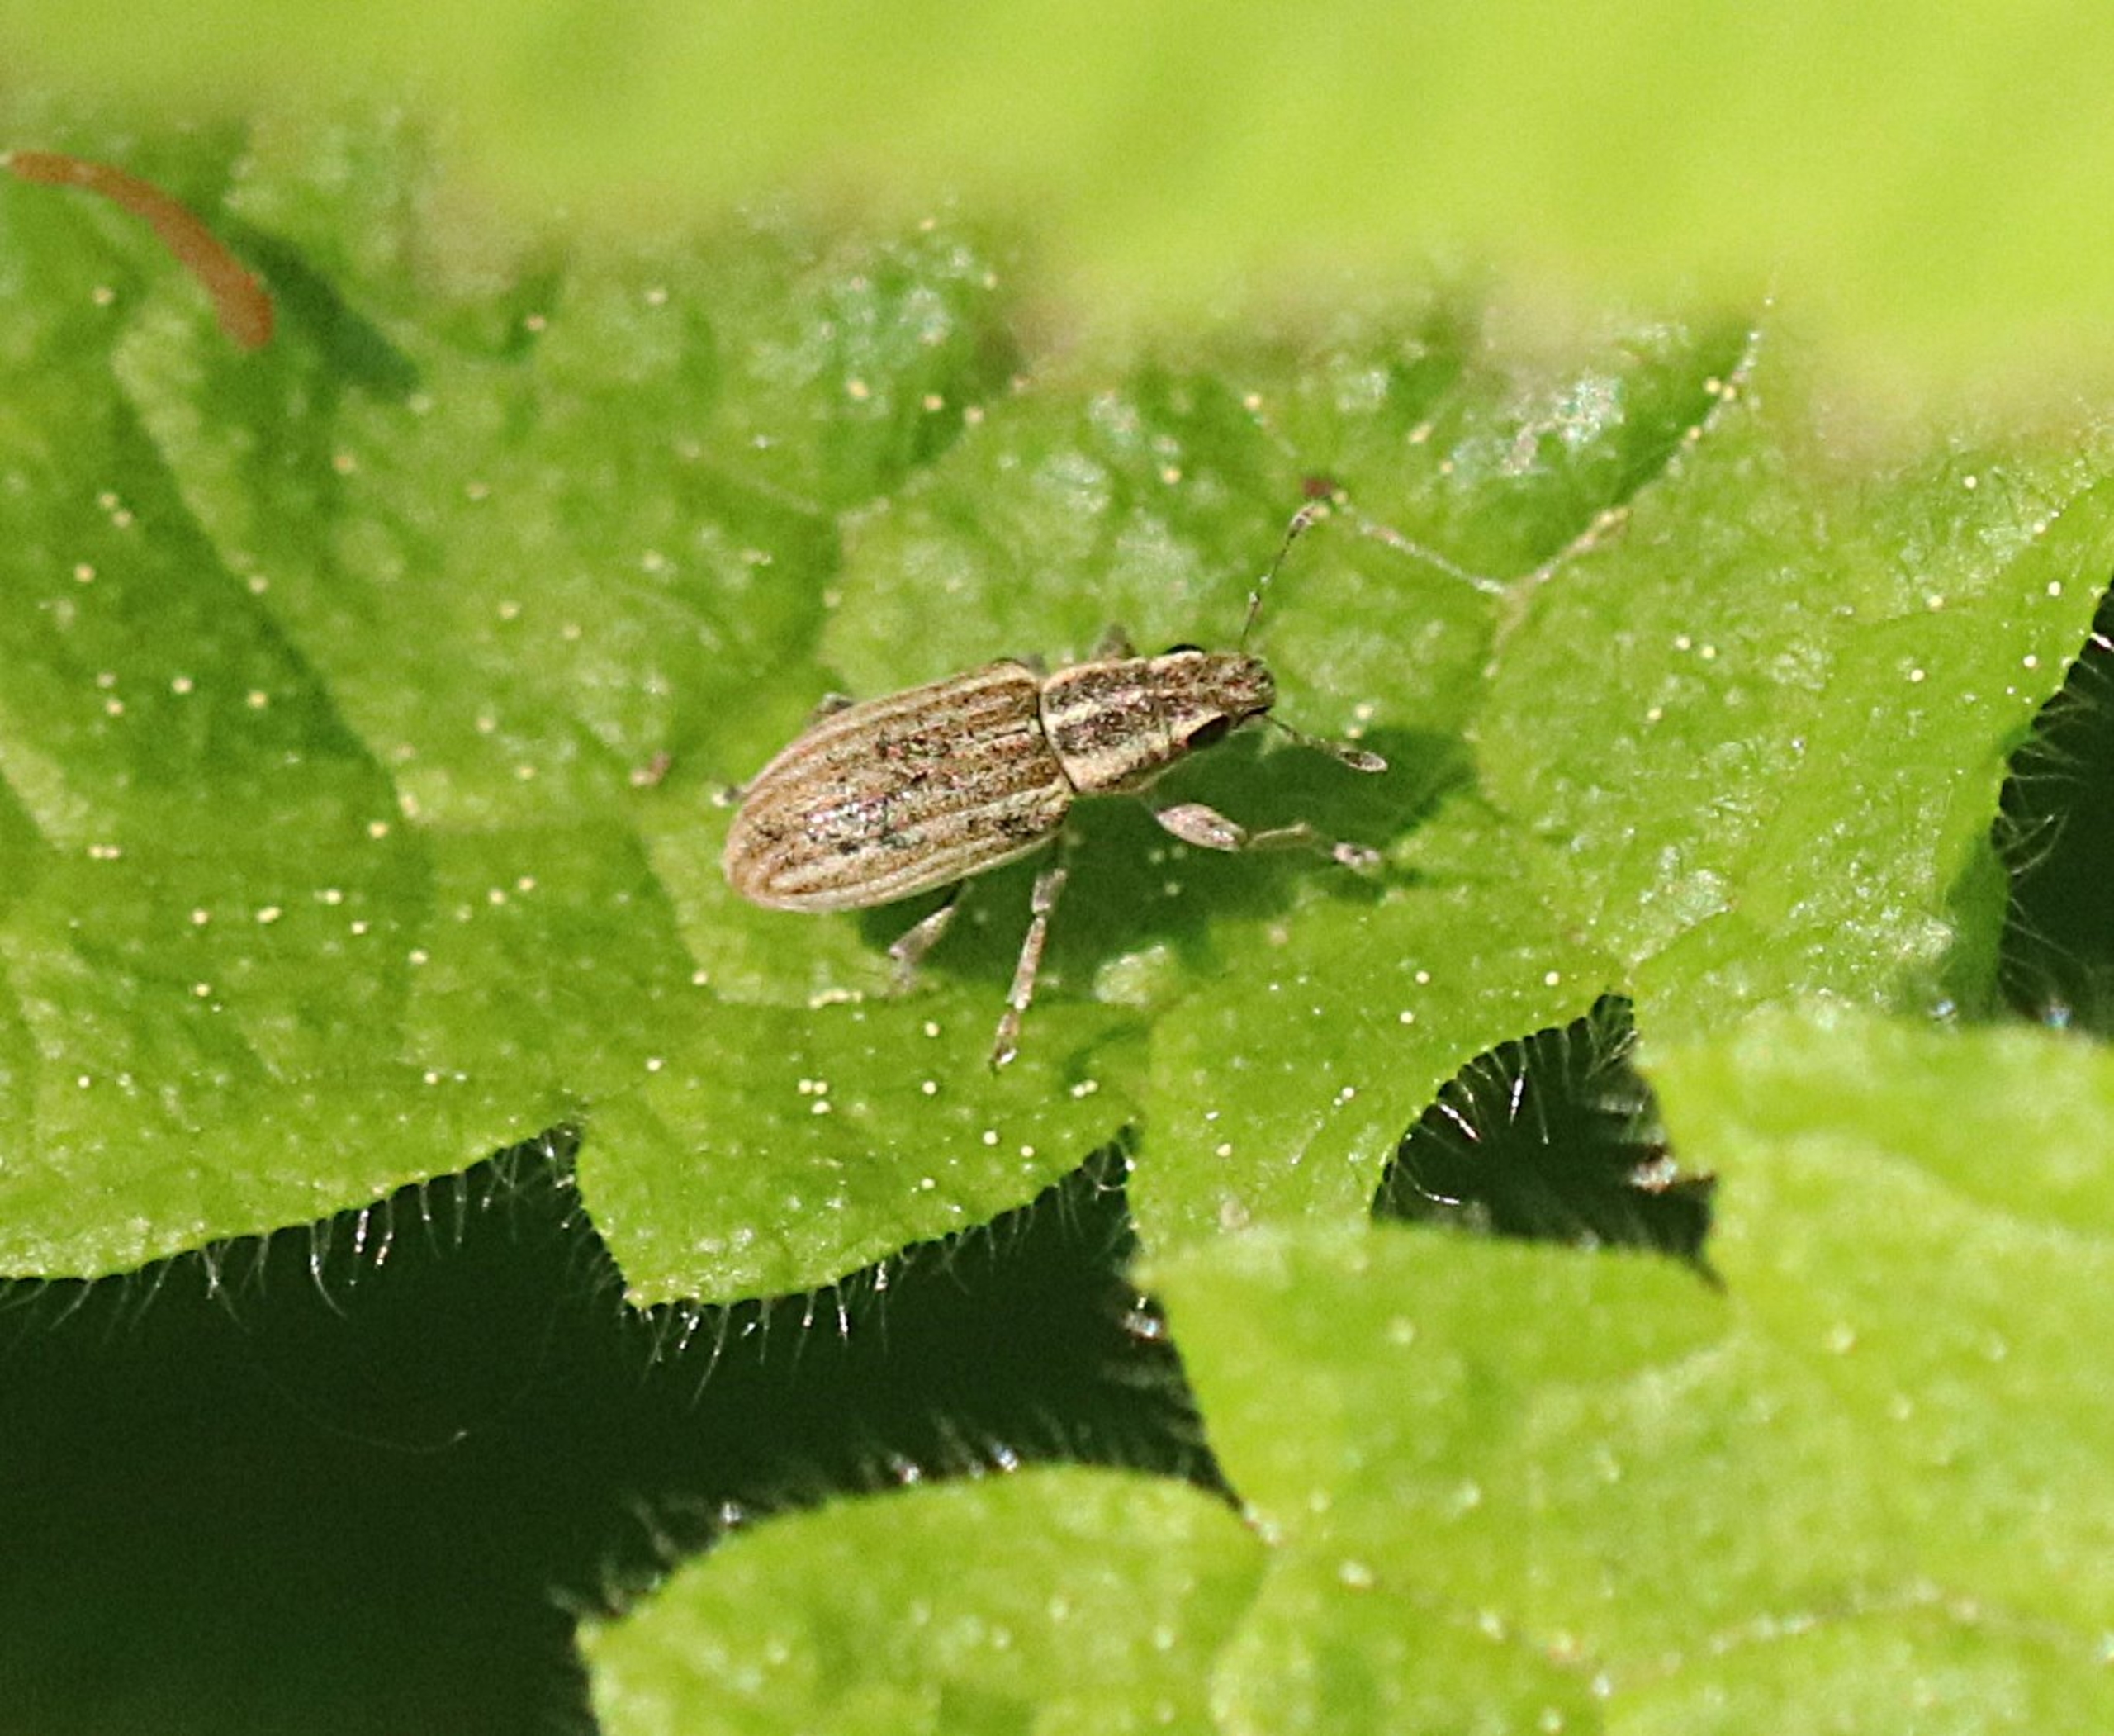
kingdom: Animalia
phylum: Arthropoda
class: Insecta
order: Coleoptera
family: Curculionidae
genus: Sitona
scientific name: Sitona lineatus
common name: Stribet bladrandbille
